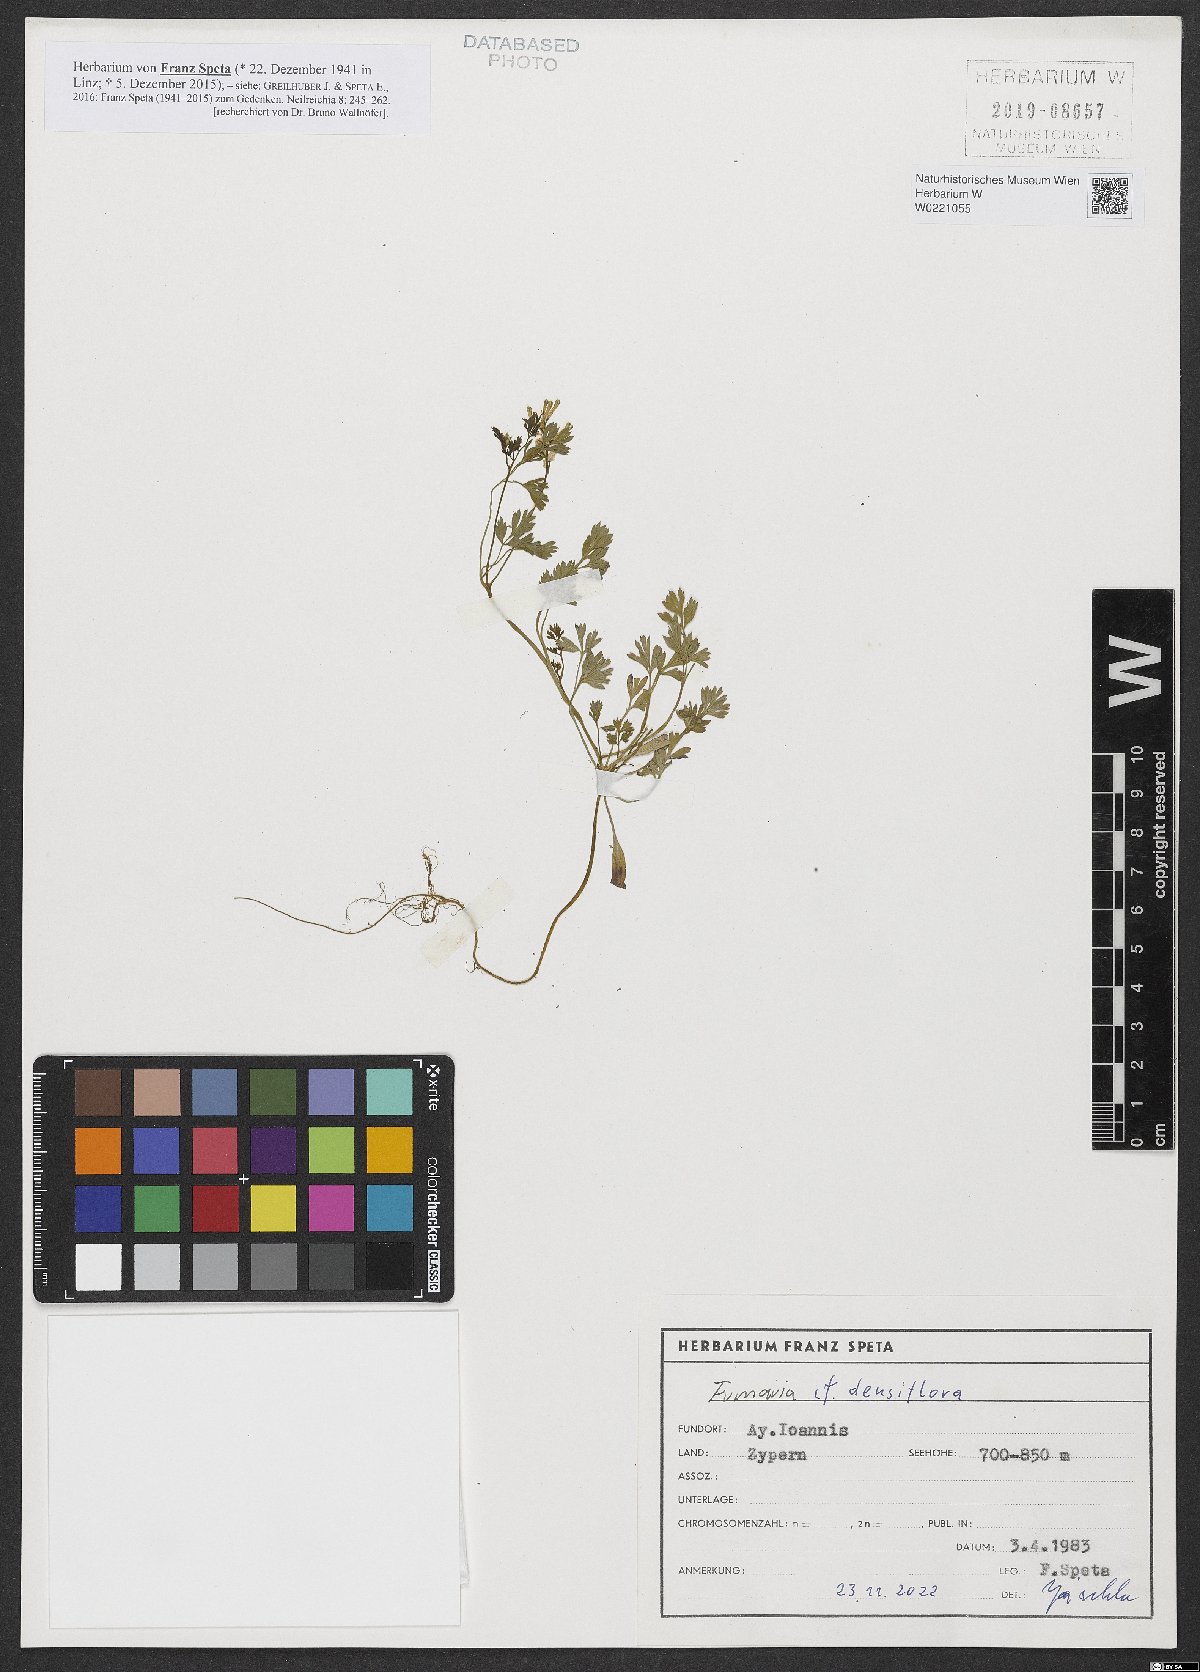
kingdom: Plantae
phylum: Tracheophyta
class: Magnoliopsida
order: Ranunculales
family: Papaveraceae
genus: Fumaria
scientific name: Fumaria densiflora
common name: Dense-flowered fumitory
